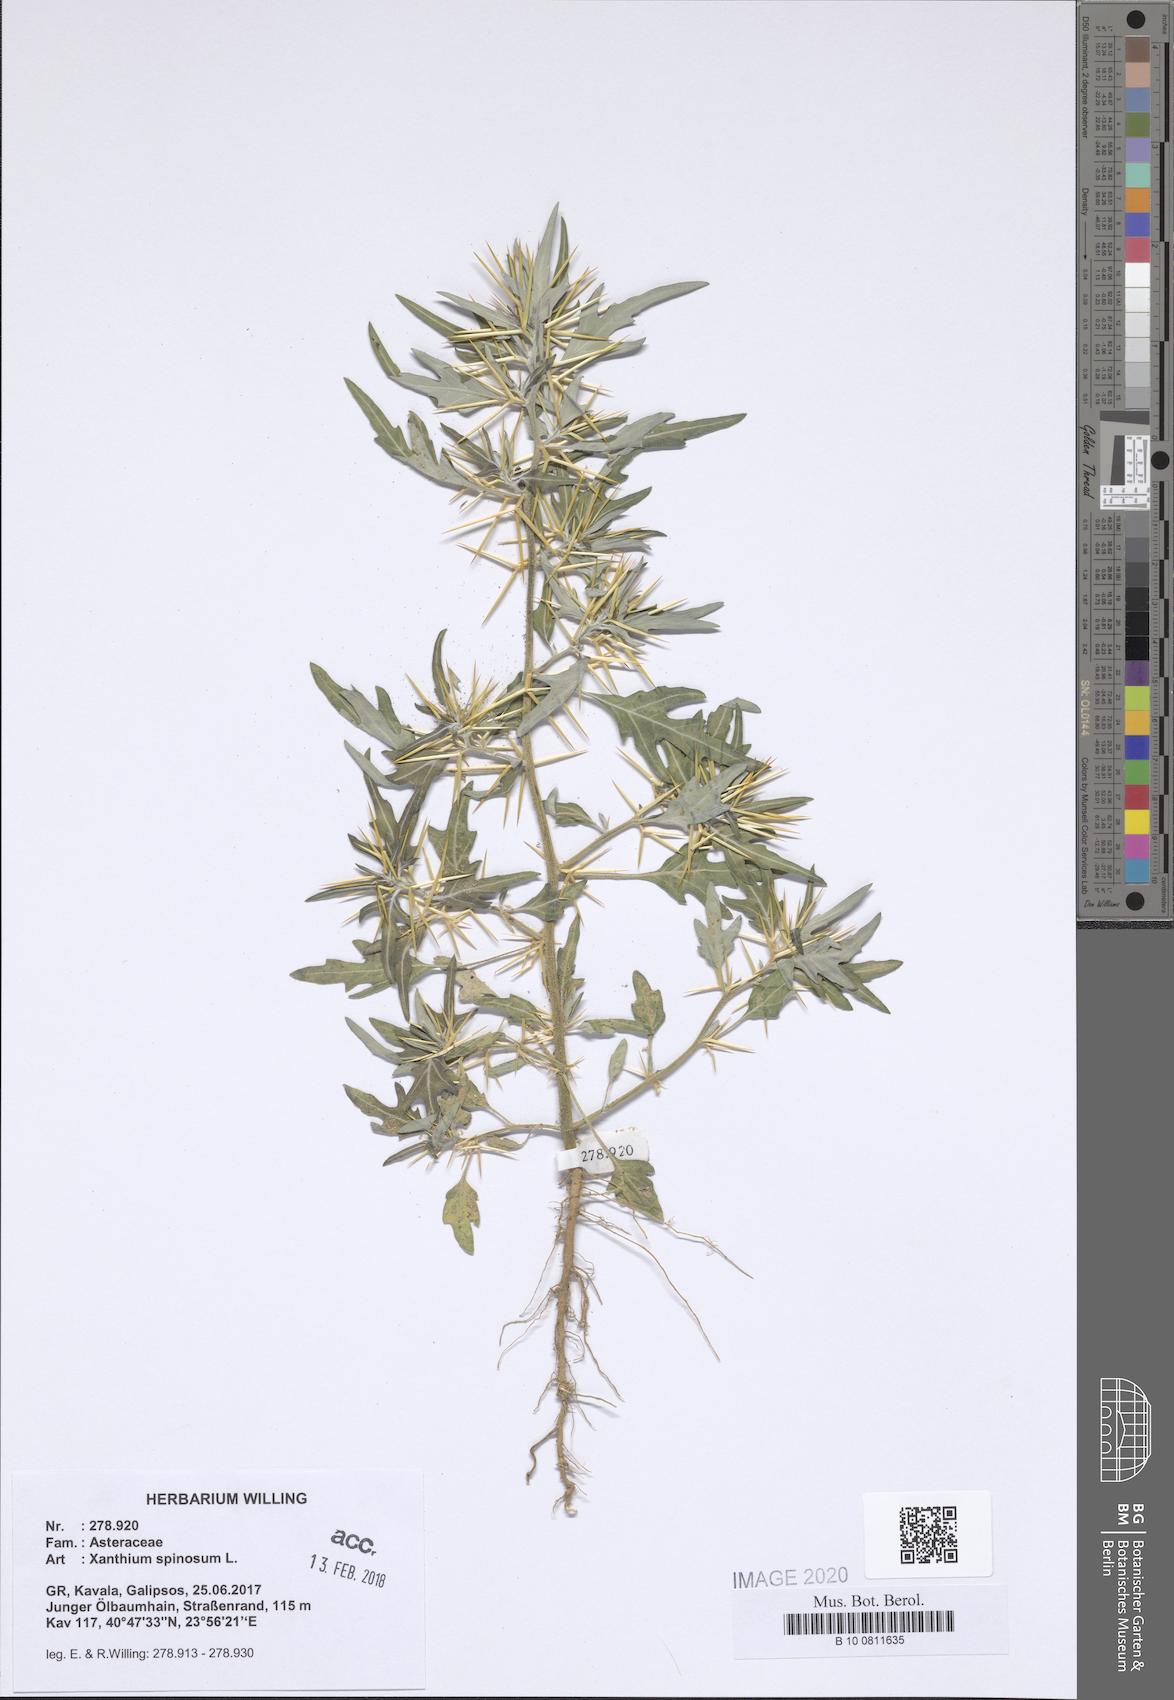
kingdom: Plantae
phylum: Tracheophyta
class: Magnoliopsida
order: Asterales
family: Asteraceae
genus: Xanthium
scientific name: Xanthium spinosum
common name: Spiny cocklebur
